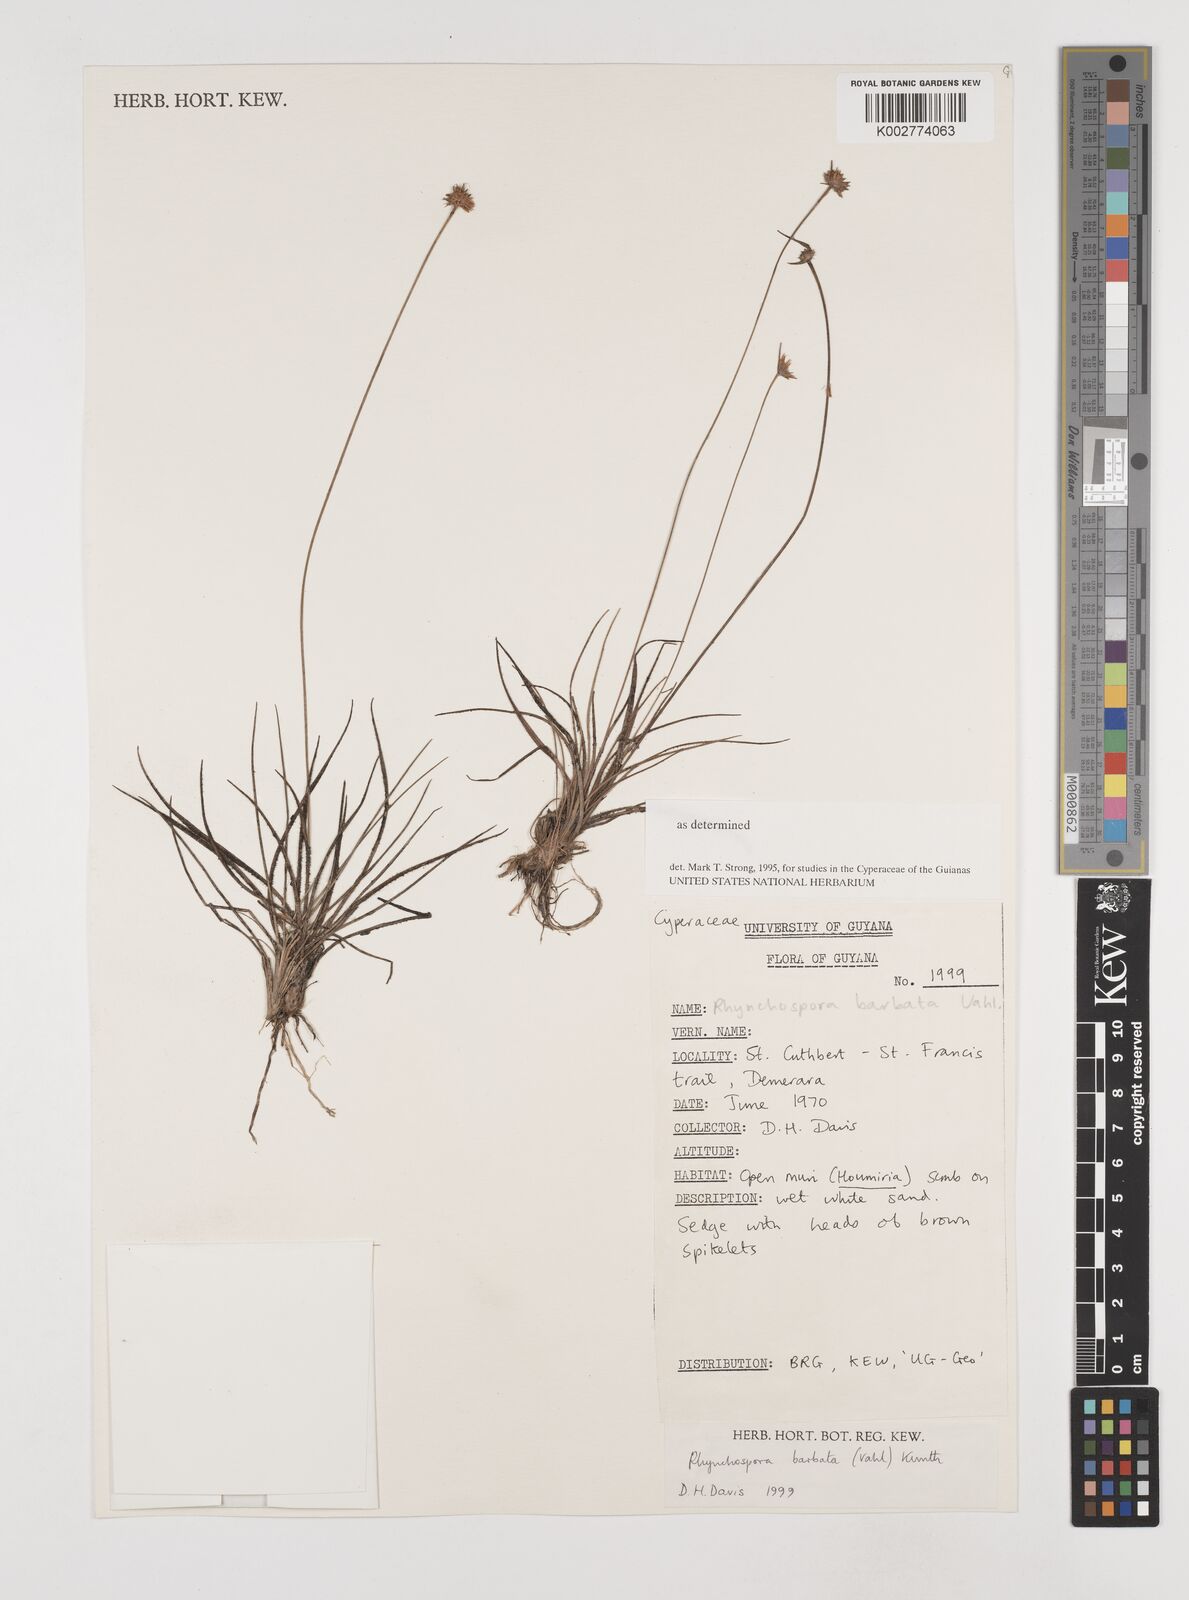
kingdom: Plantae
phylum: Tracheophyta
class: Liliopsida
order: Poales
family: Cyperaceae
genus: Rhynchospora
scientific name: Rhynchospora barbata
